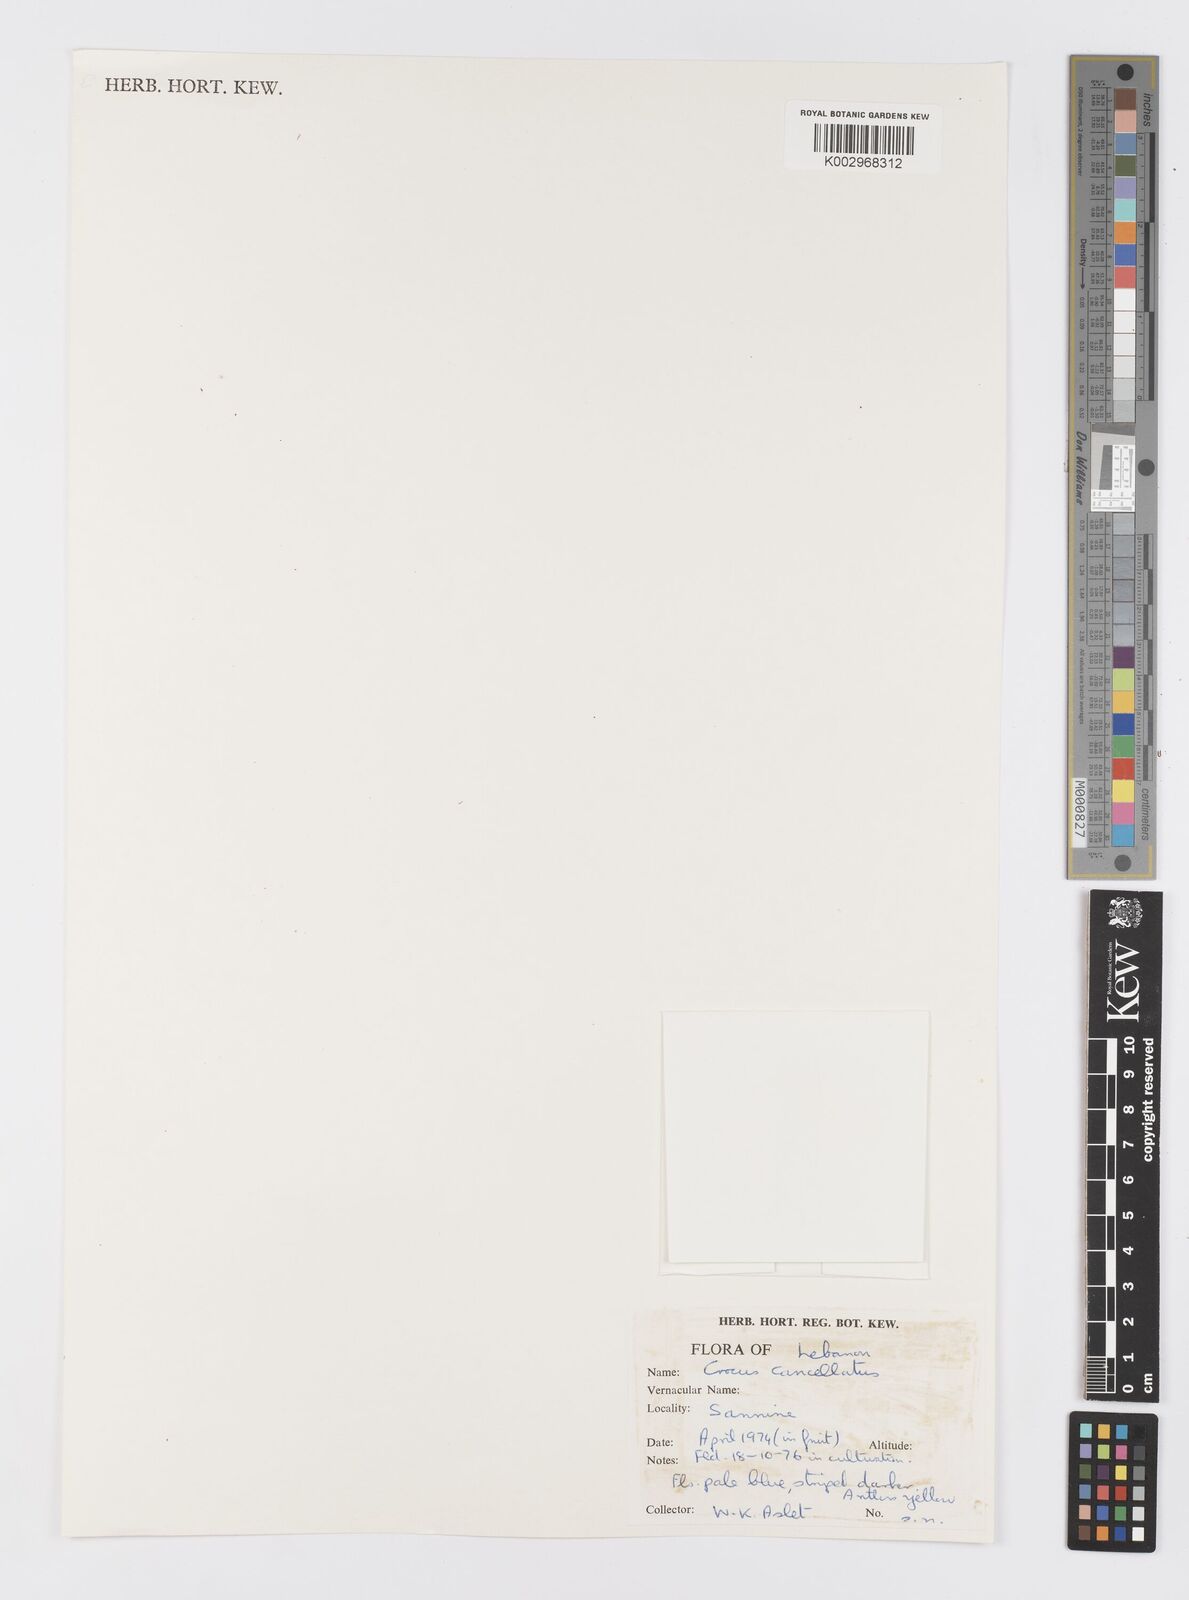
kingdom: Plantae
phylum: Tracheophyta
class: Liliopsida
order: Asparagales
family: Iridaceae
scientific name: Iridaceae
